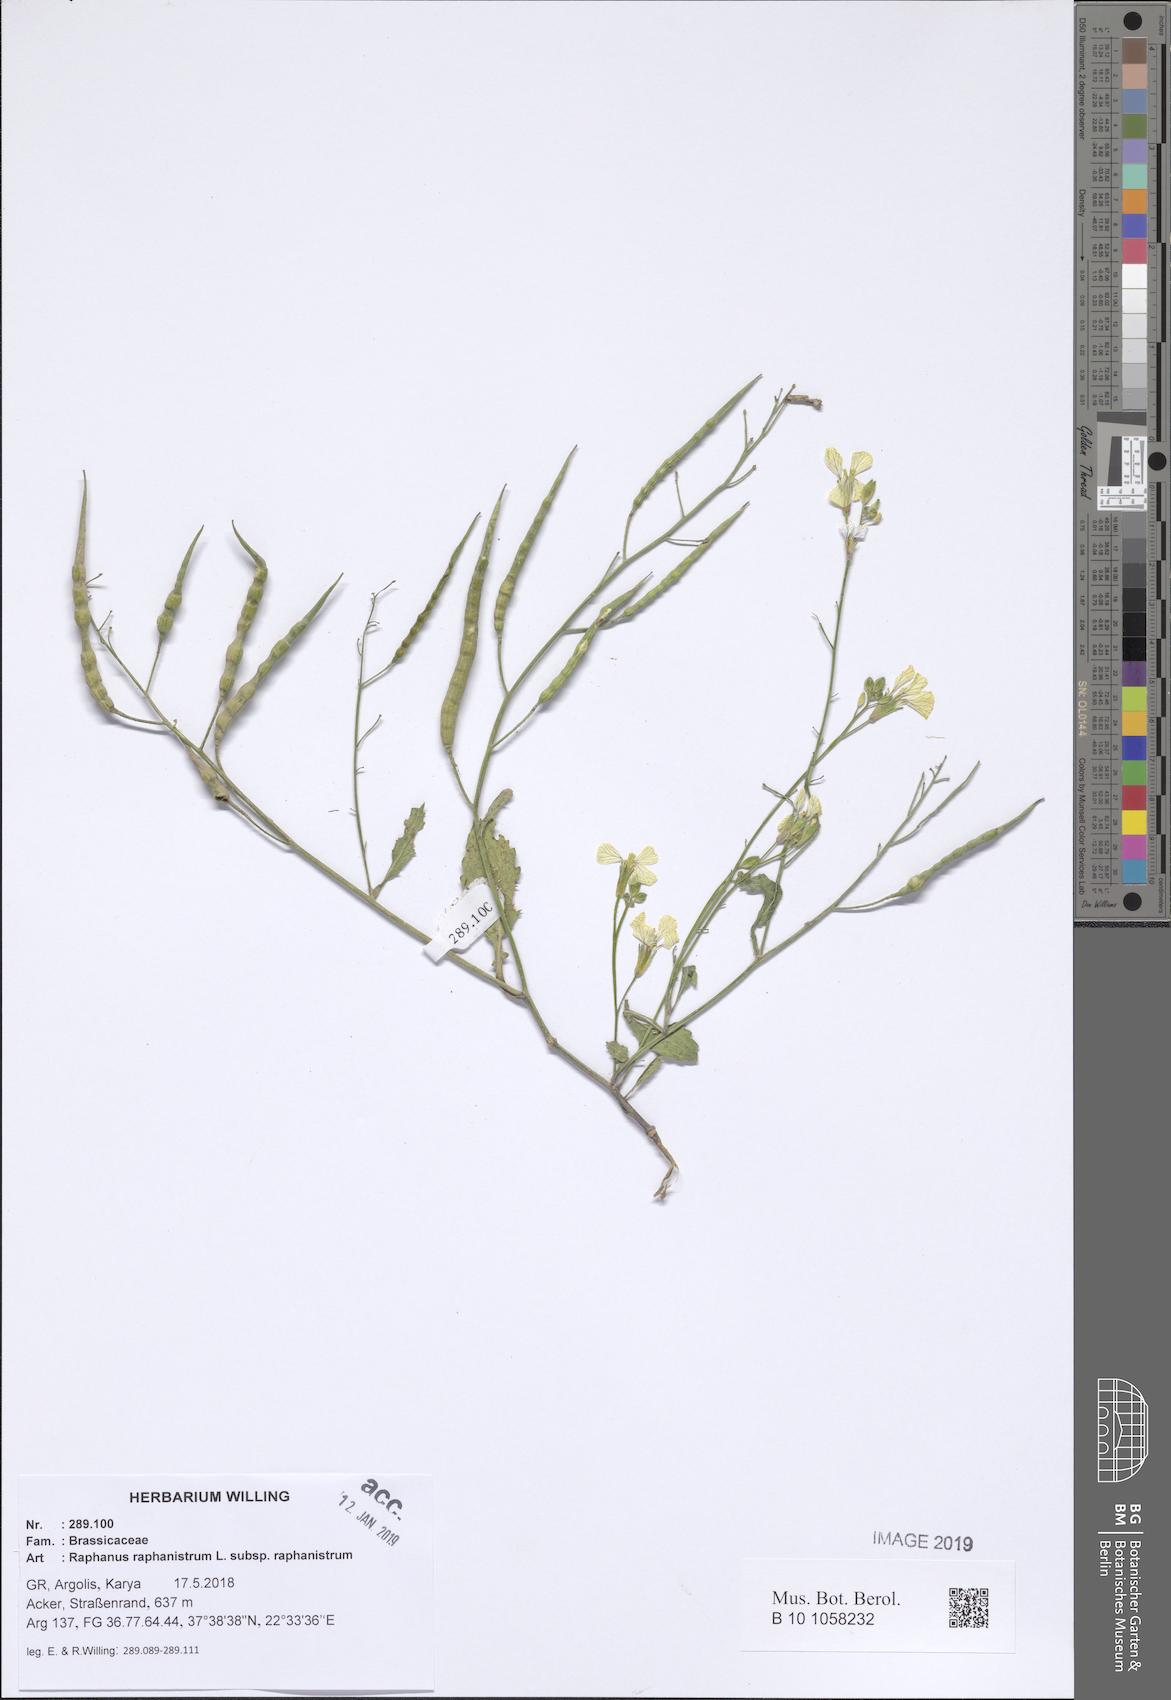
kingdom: Plantae
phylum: Tracheophyta
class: Magnoliopsida
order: Brassicales
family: Brassicaceae
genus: Raphanus
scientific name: Raphanus raphanistrum
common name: Wild radish
